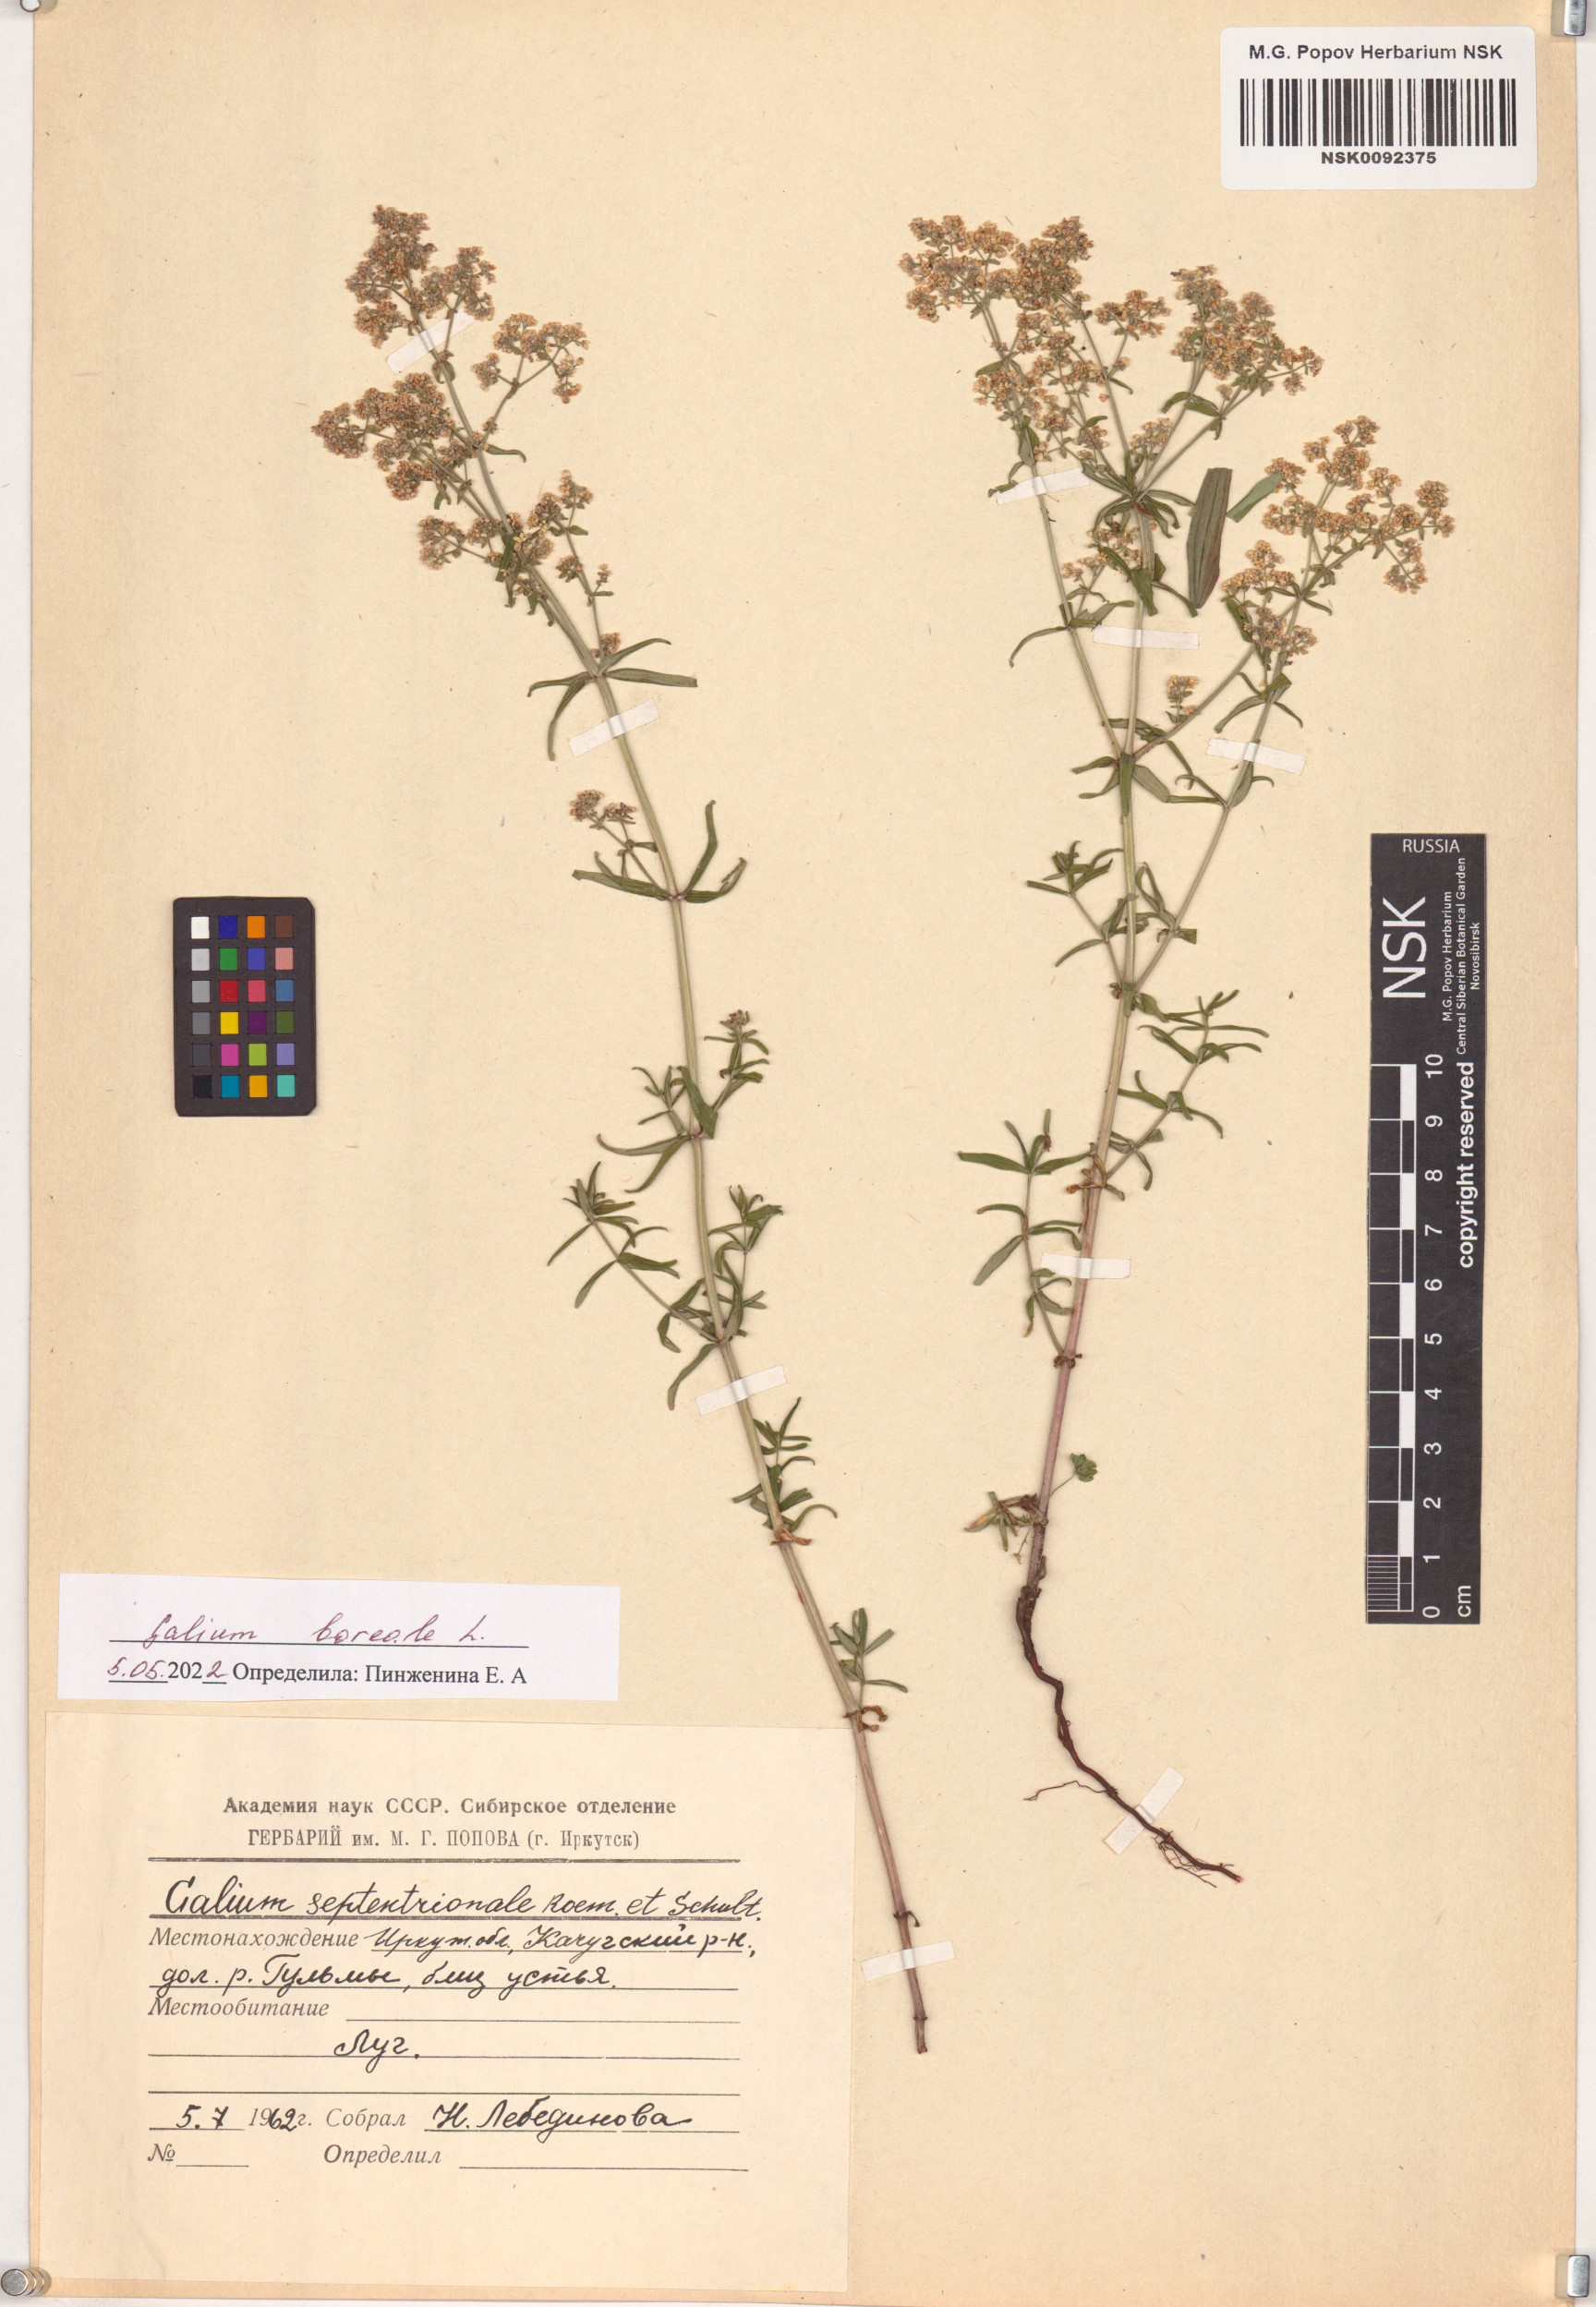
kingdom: Plantae
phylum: Tracheophyta
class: Magnoliopsida
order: Gentianales
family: Rubiaceae
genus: Galium
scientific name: Galium boreale
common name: Northern bedstraw
